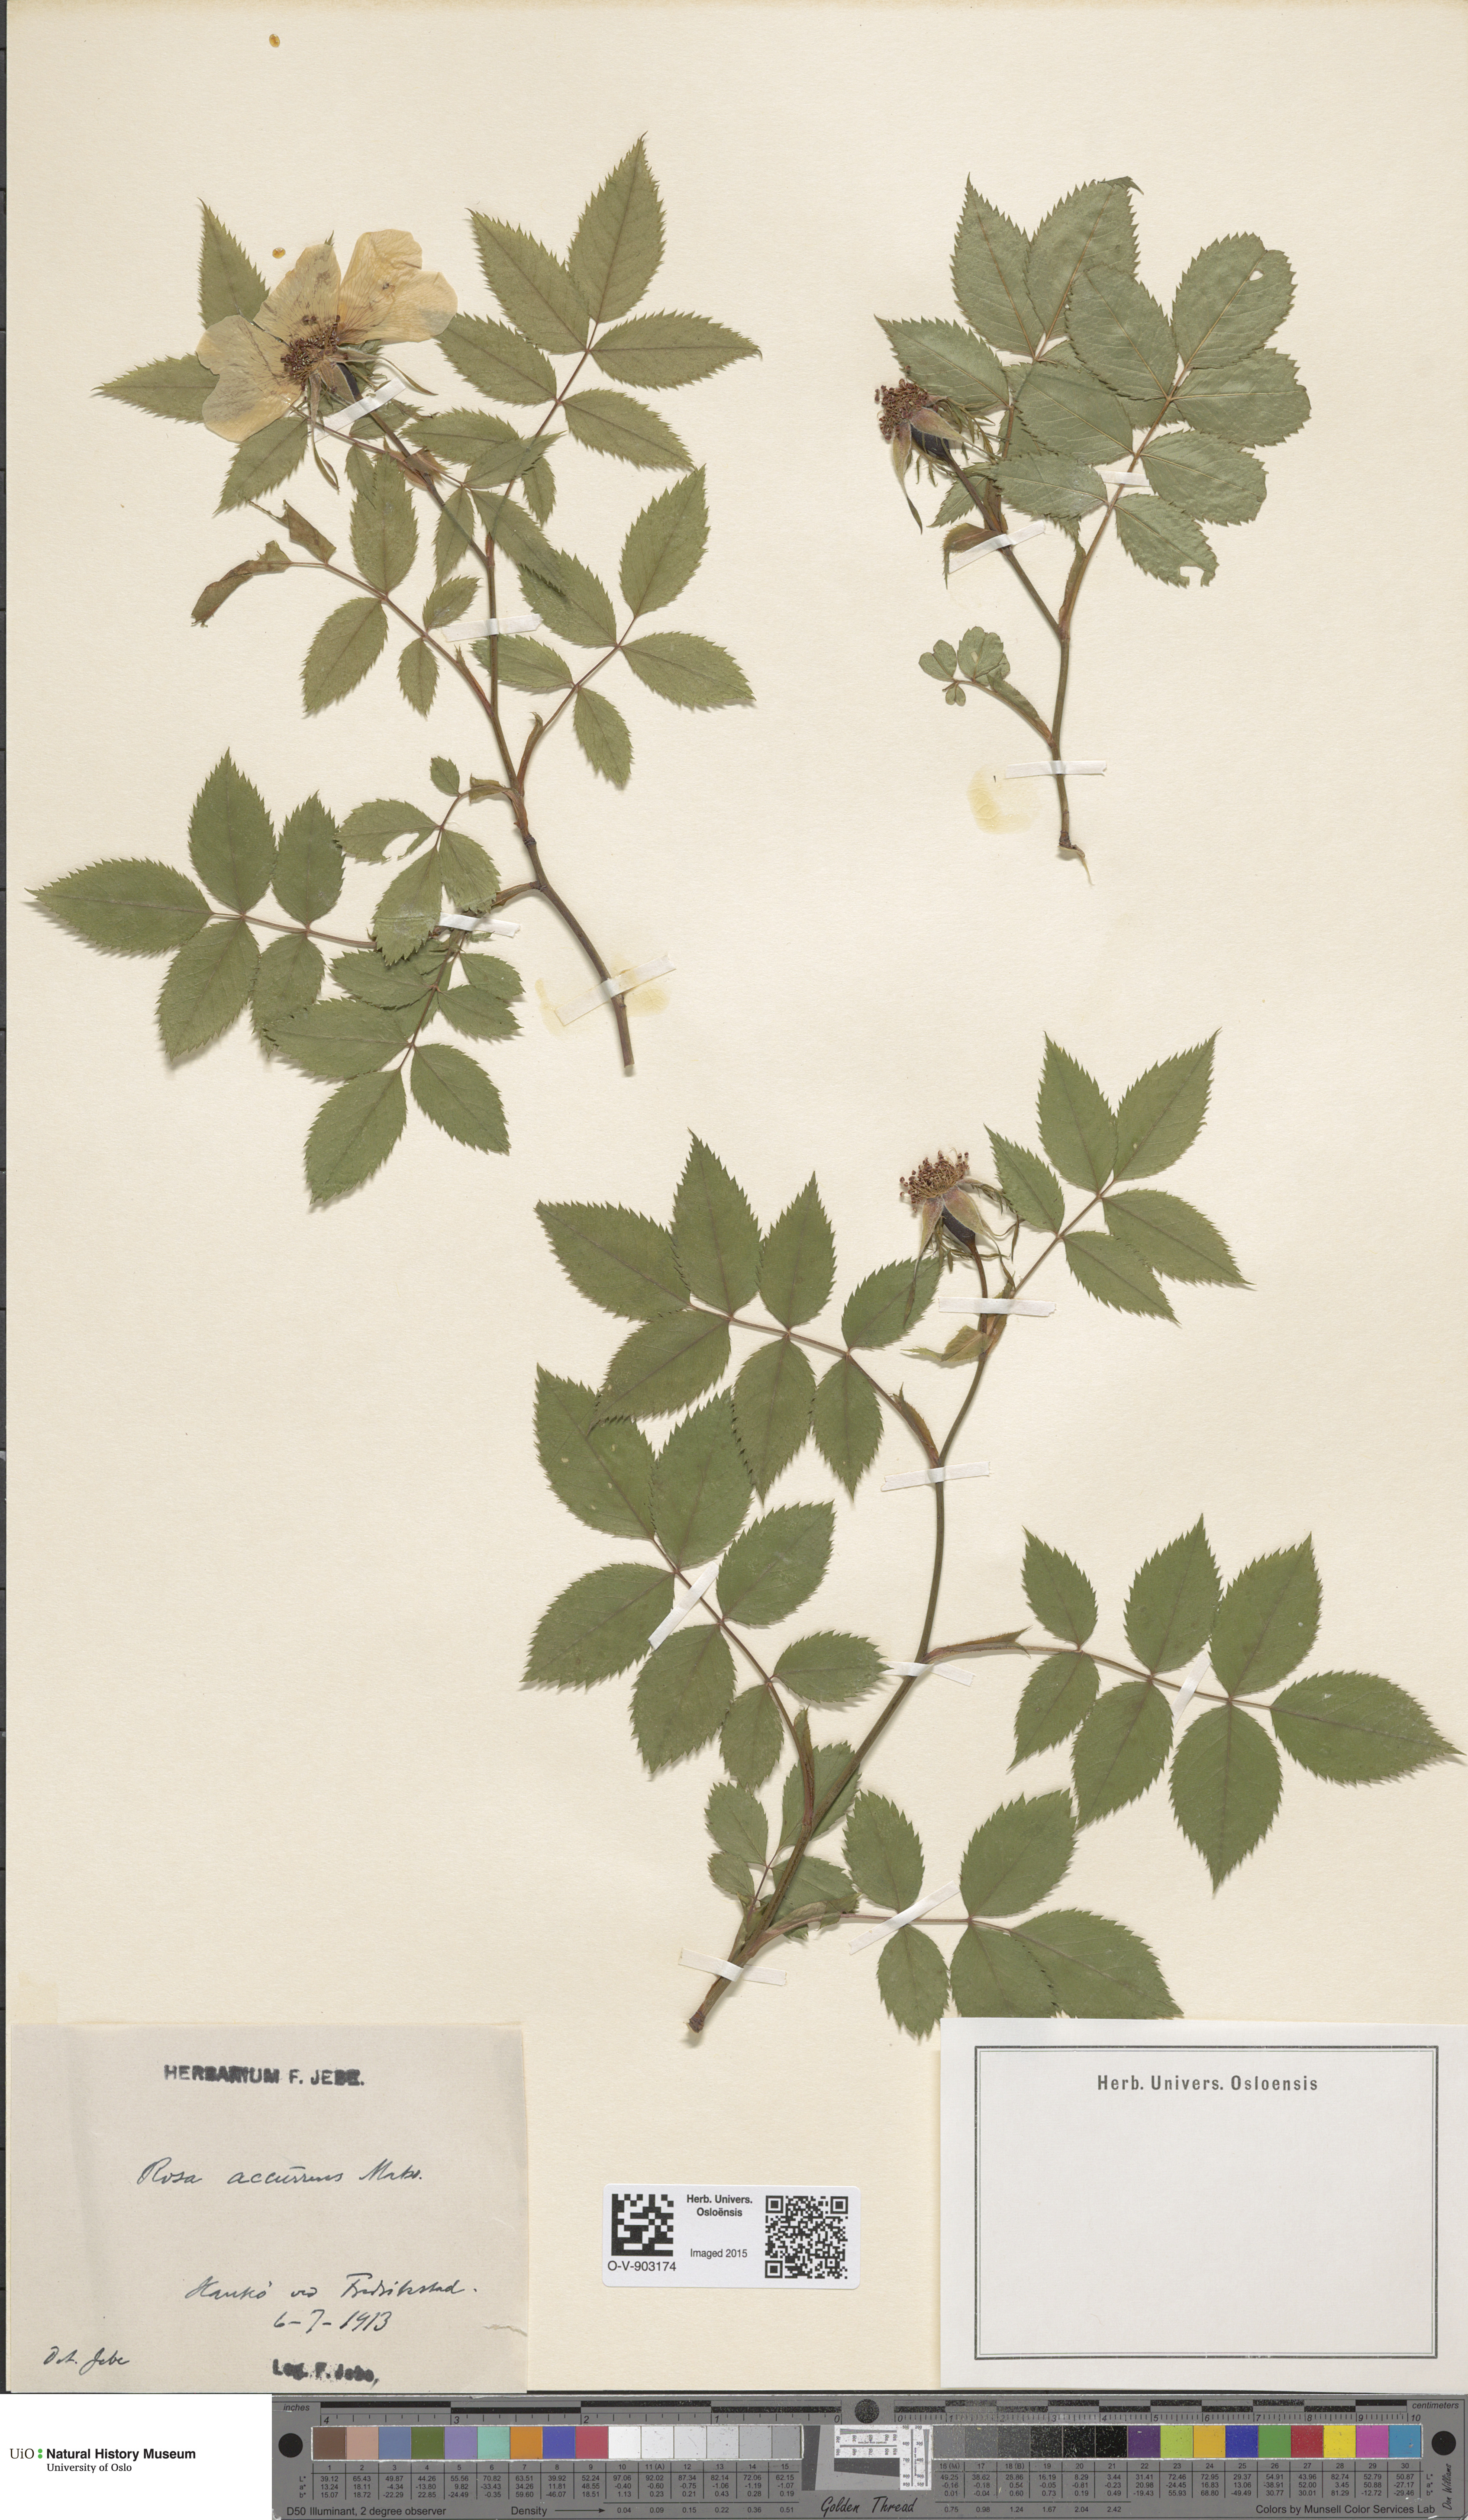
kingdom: Plantae
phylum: Tracheophyta
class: Magnoliopsida
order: Rosales
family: Rosaceae
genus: Rosa
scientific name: Rosa retecta
